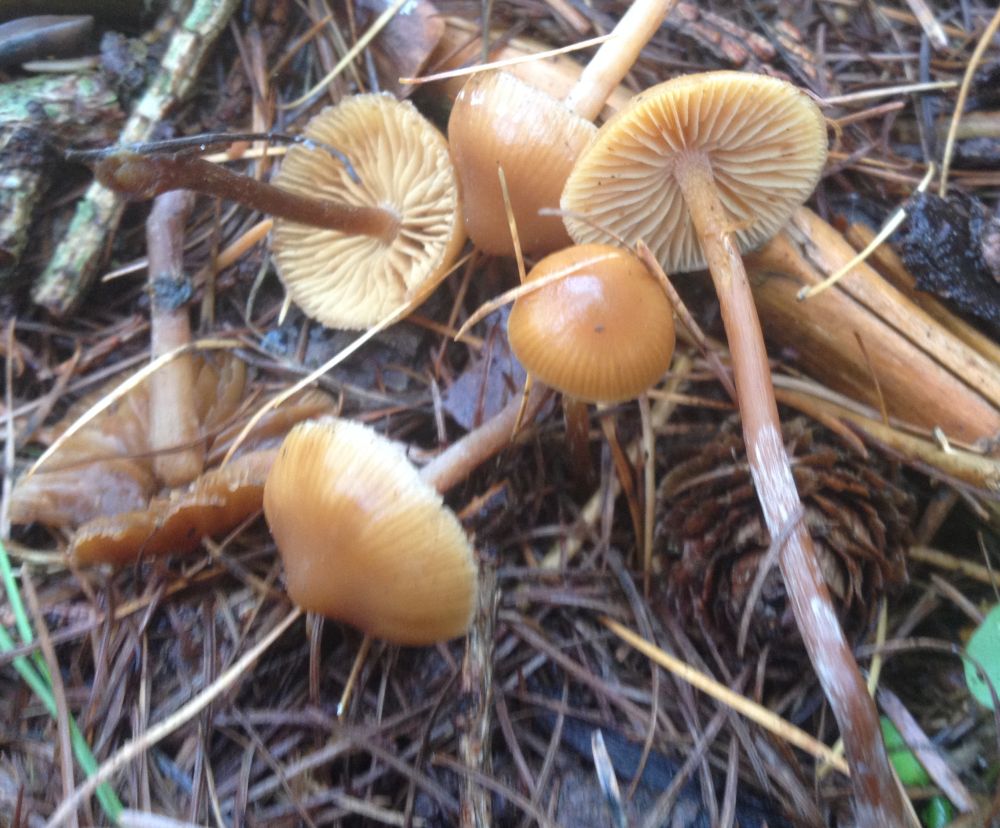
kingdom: Fungi
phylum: Basidiomycota
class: Agaricomycetes
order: Agaricales
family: Hymenogastraceae
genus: Galerina
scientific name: Galerina
